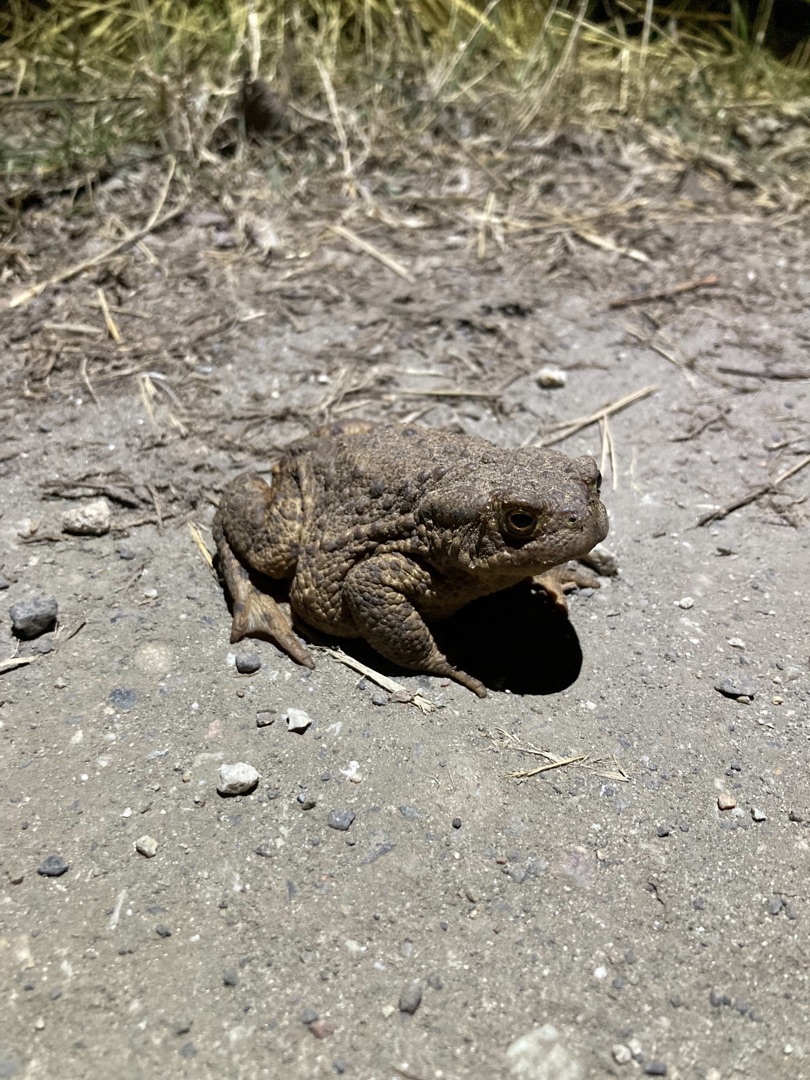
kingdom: Animalia
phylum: Chordata
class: Amphibia
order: Anura
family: Bufonidae
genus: Bufo
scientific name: Bufo bufo
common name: Skrubtudse
